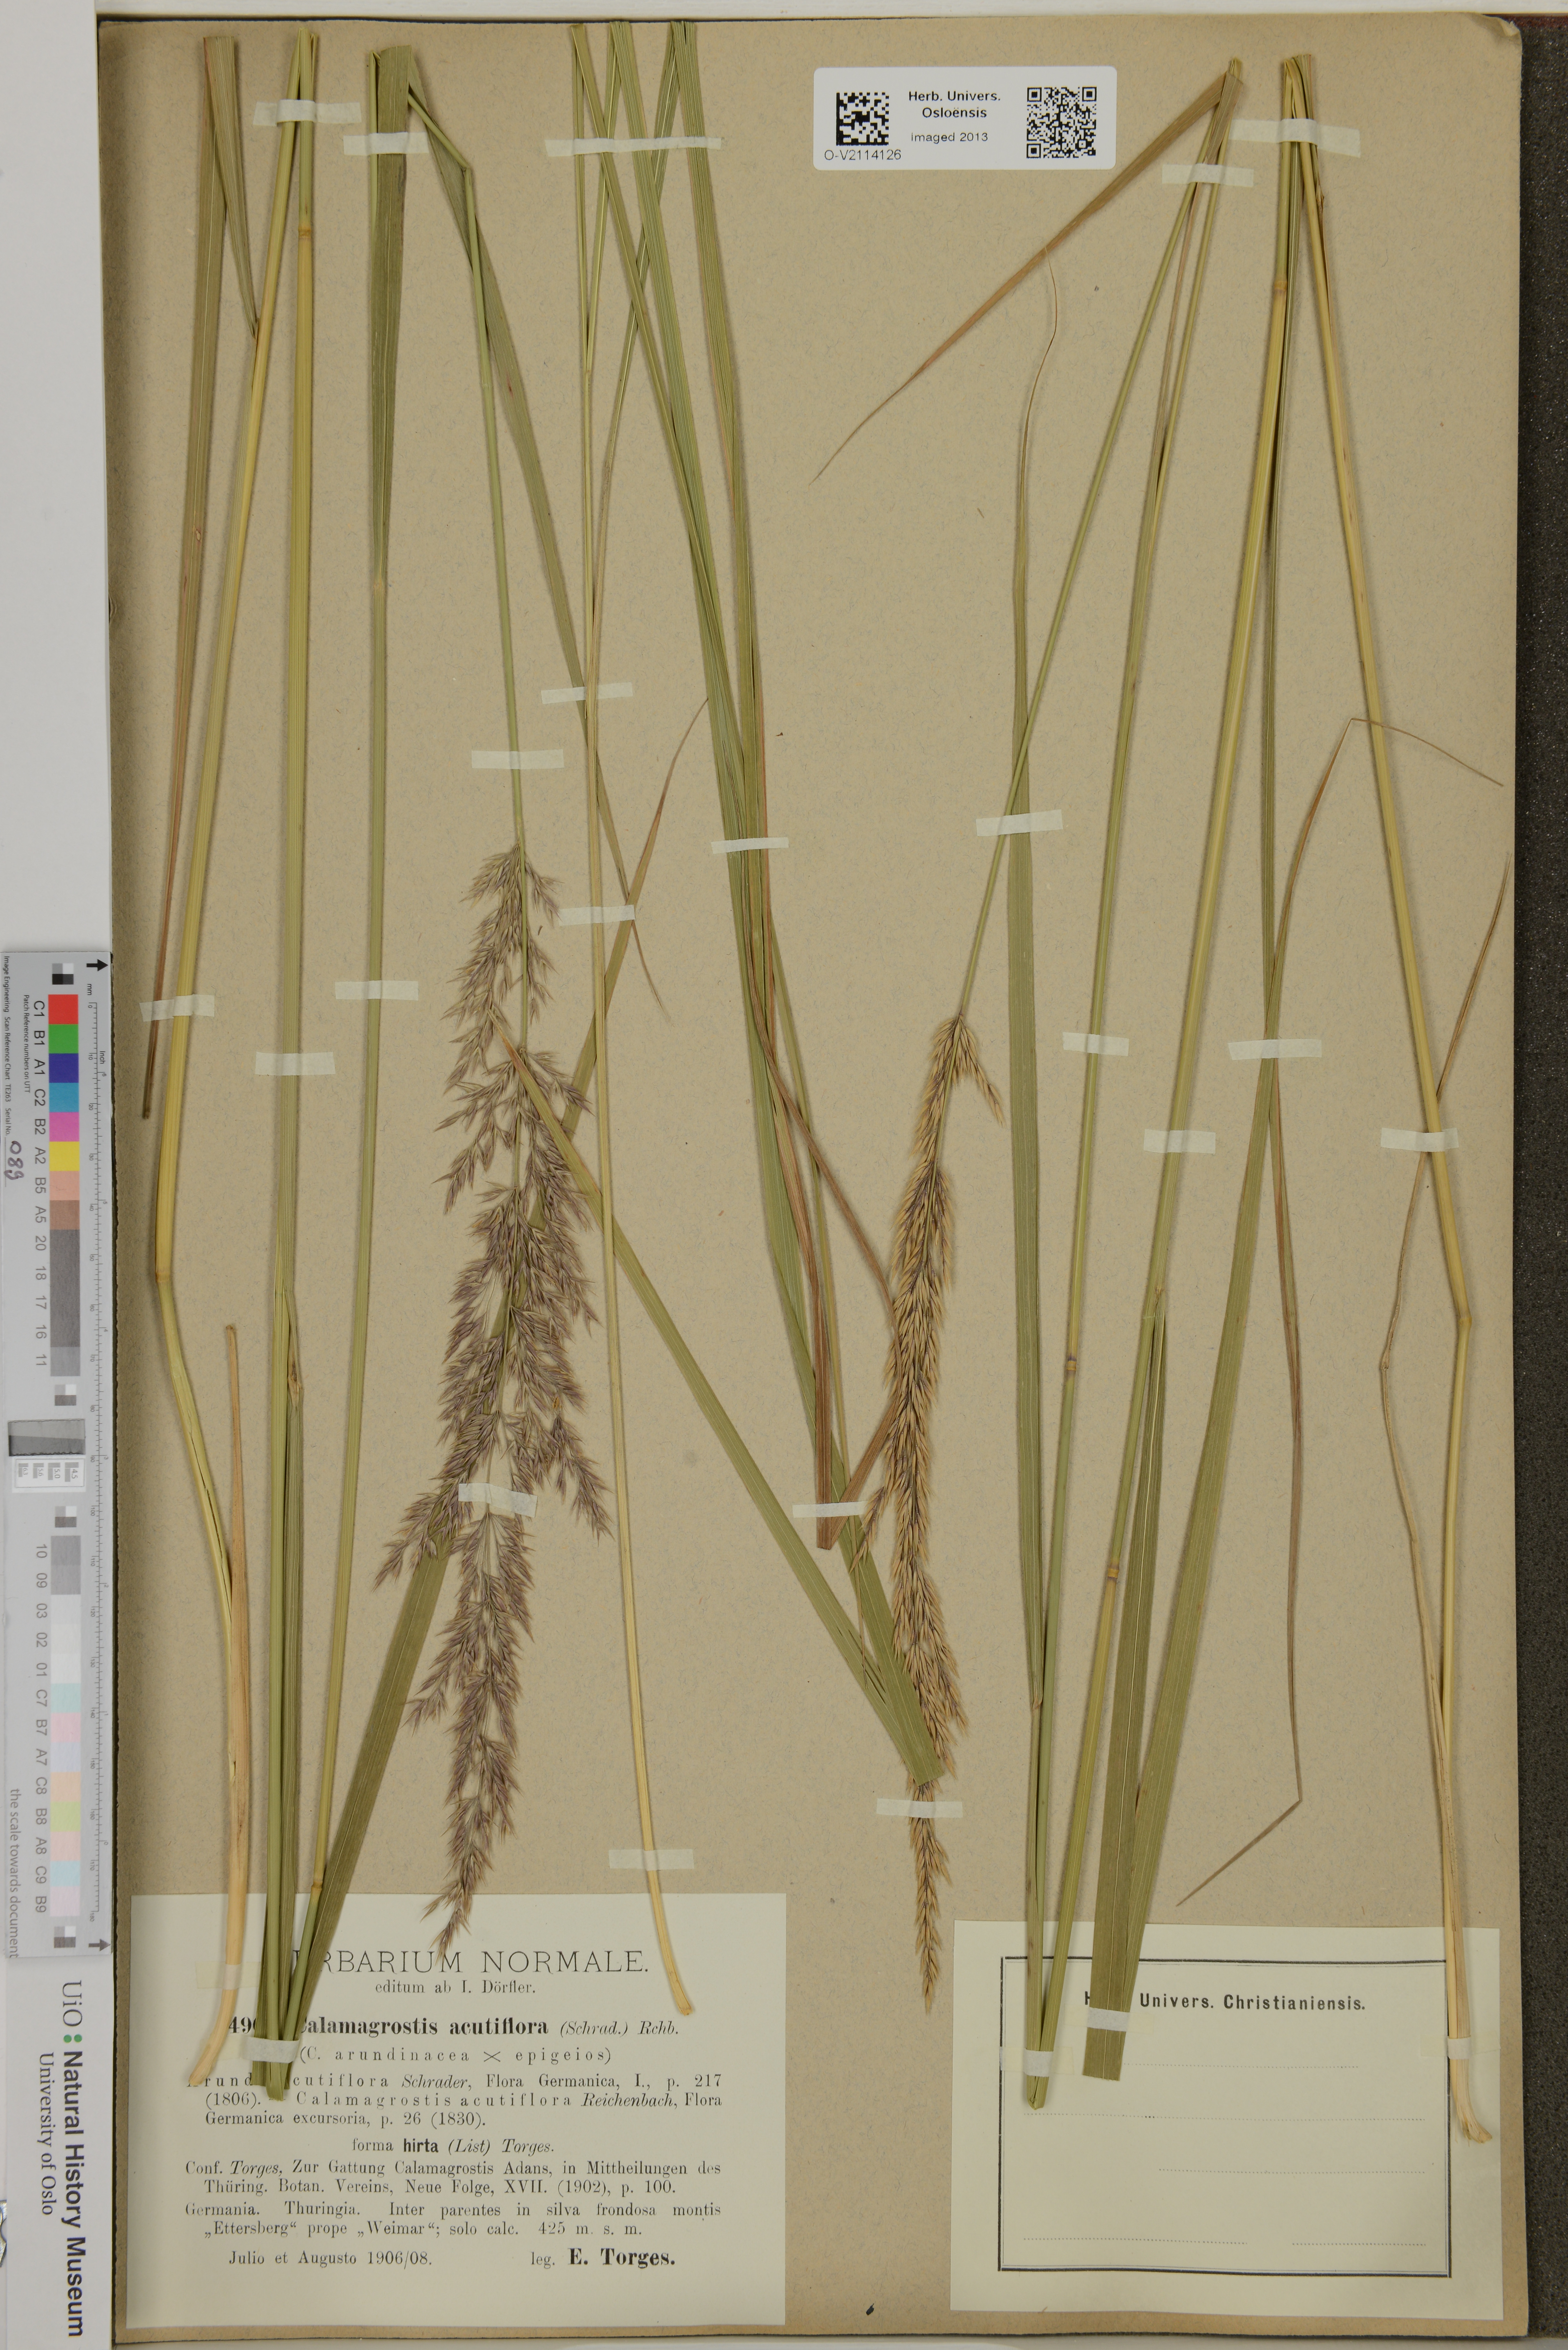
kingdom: Plantae
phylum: Tracheophyta
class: Liliopsida
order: Poales
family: Poaceae
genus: Calamagrostis
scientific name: Calamagrostis acutiflora
